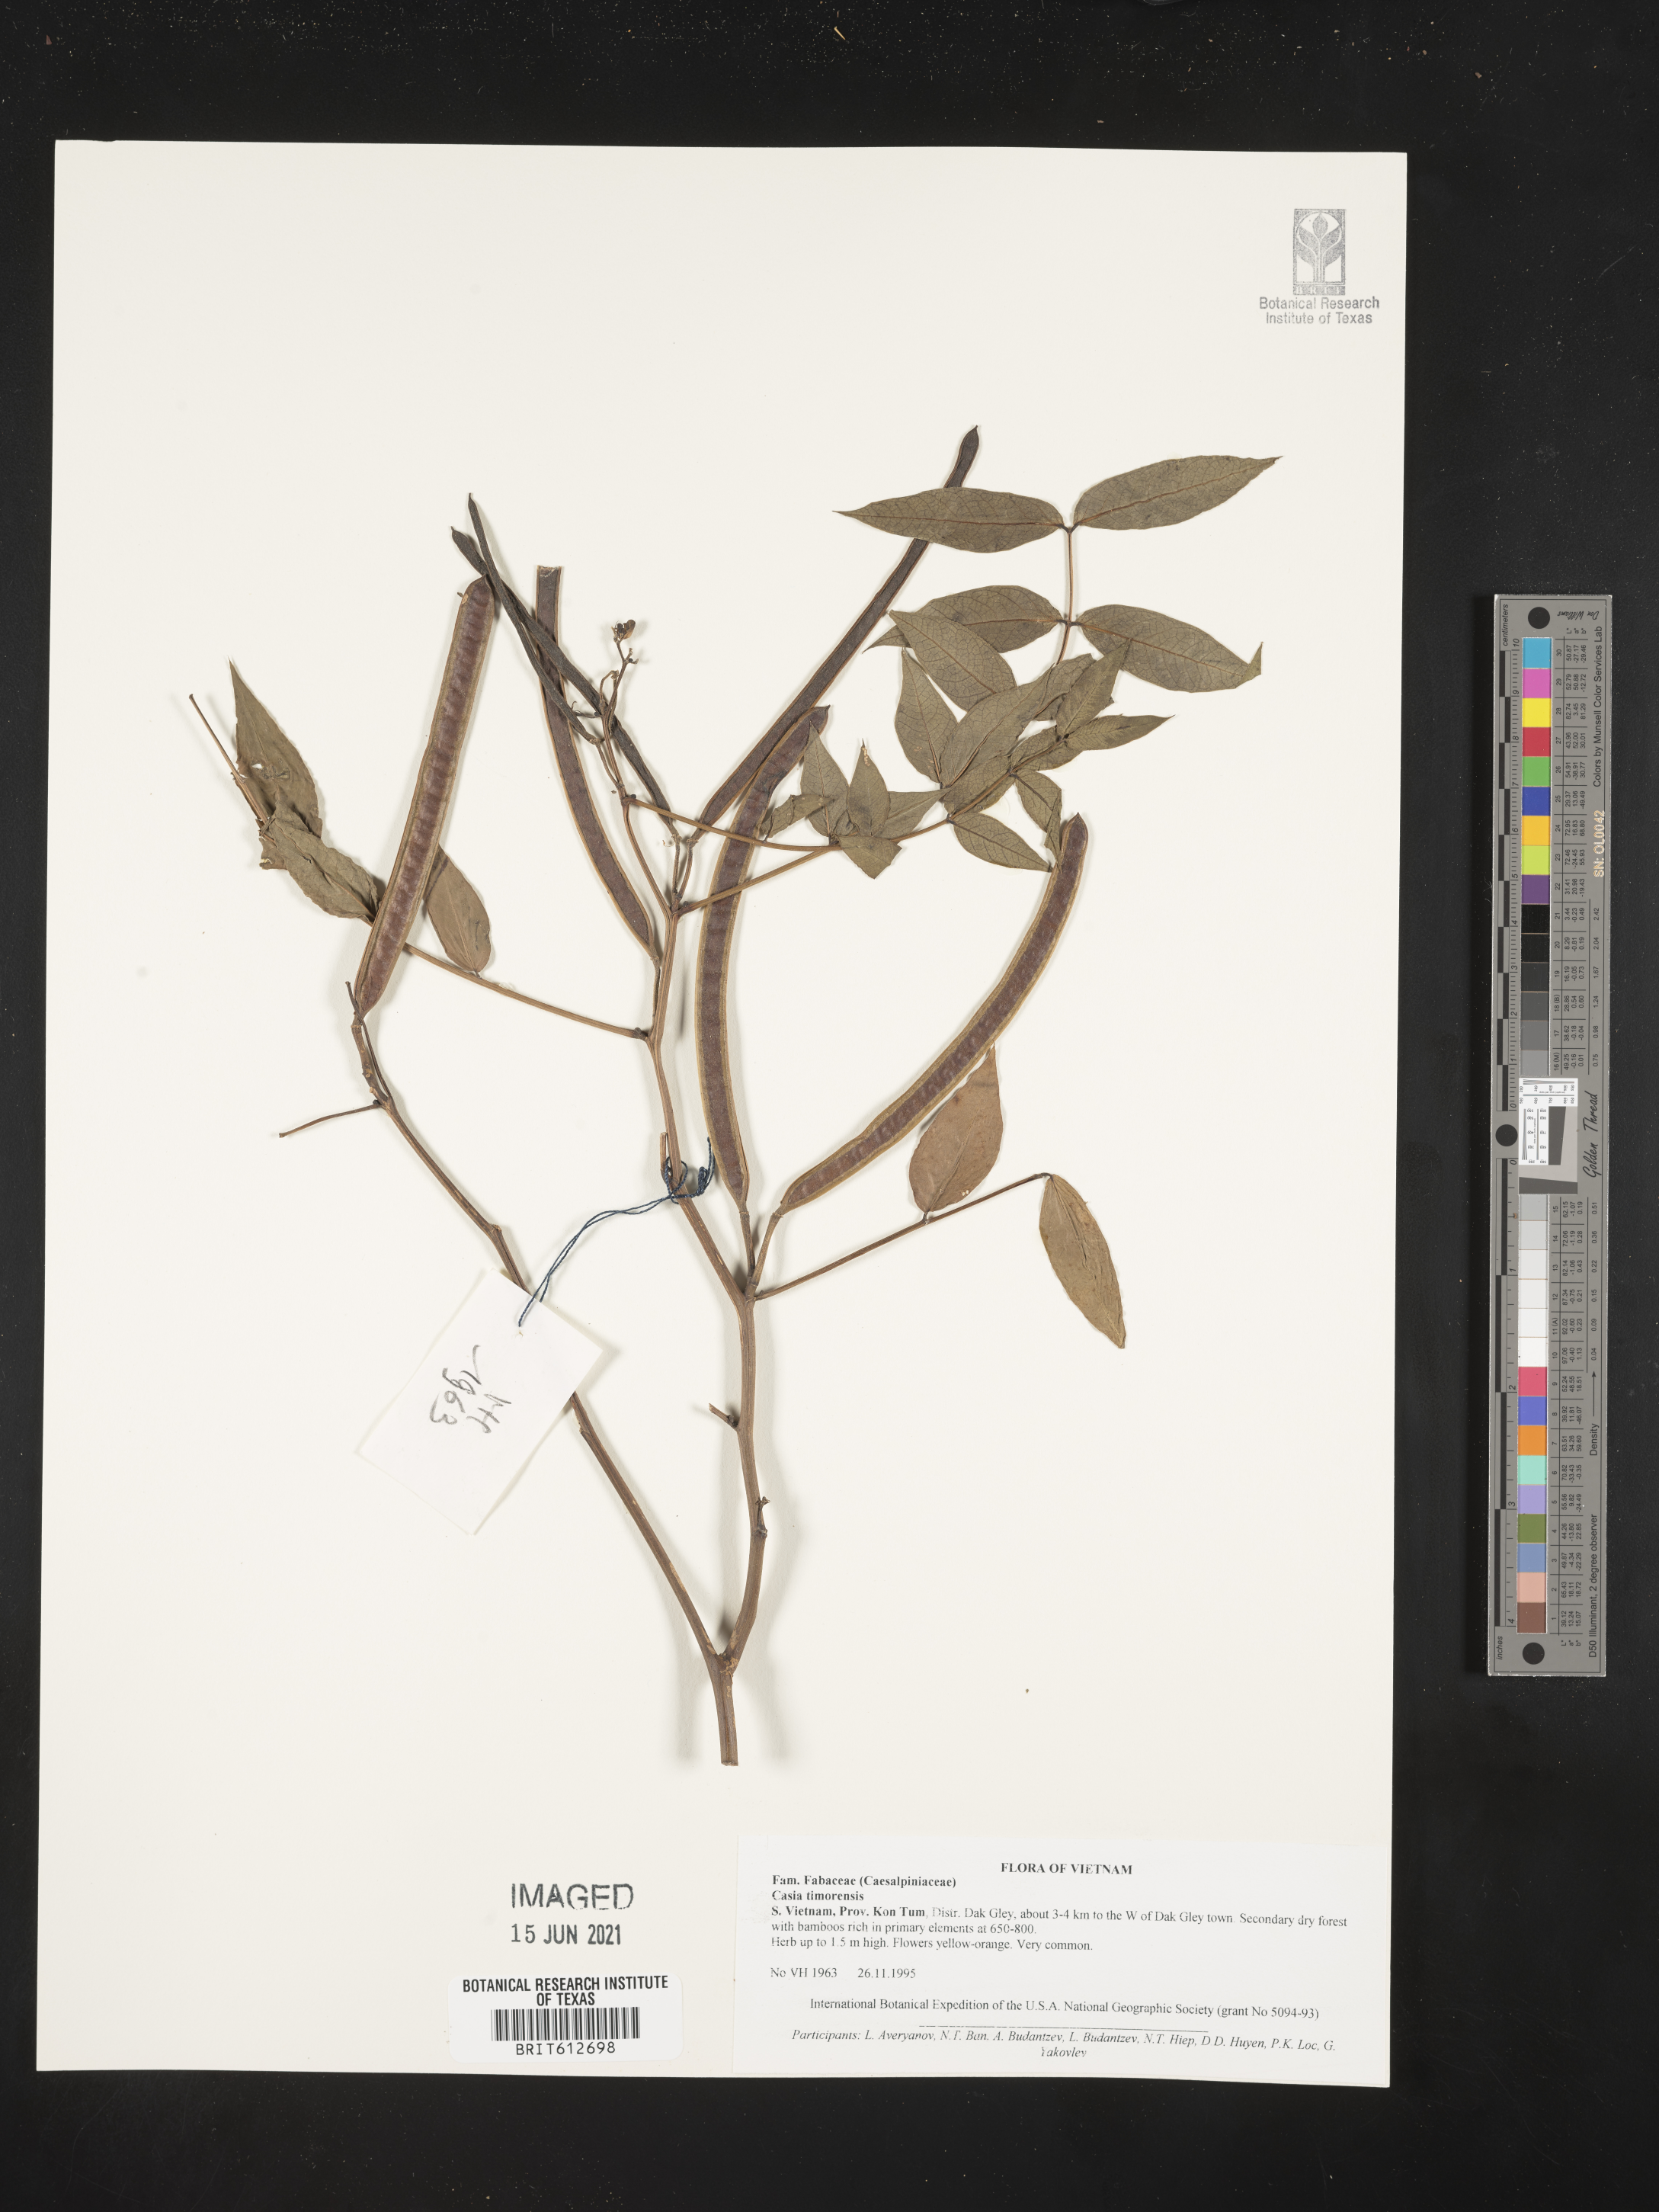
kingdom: Plantae
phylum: Tracheophyta
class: Magnoliopsida
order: Fabales
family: Fabaceae
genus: Senna
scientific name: Senna timoriensis
